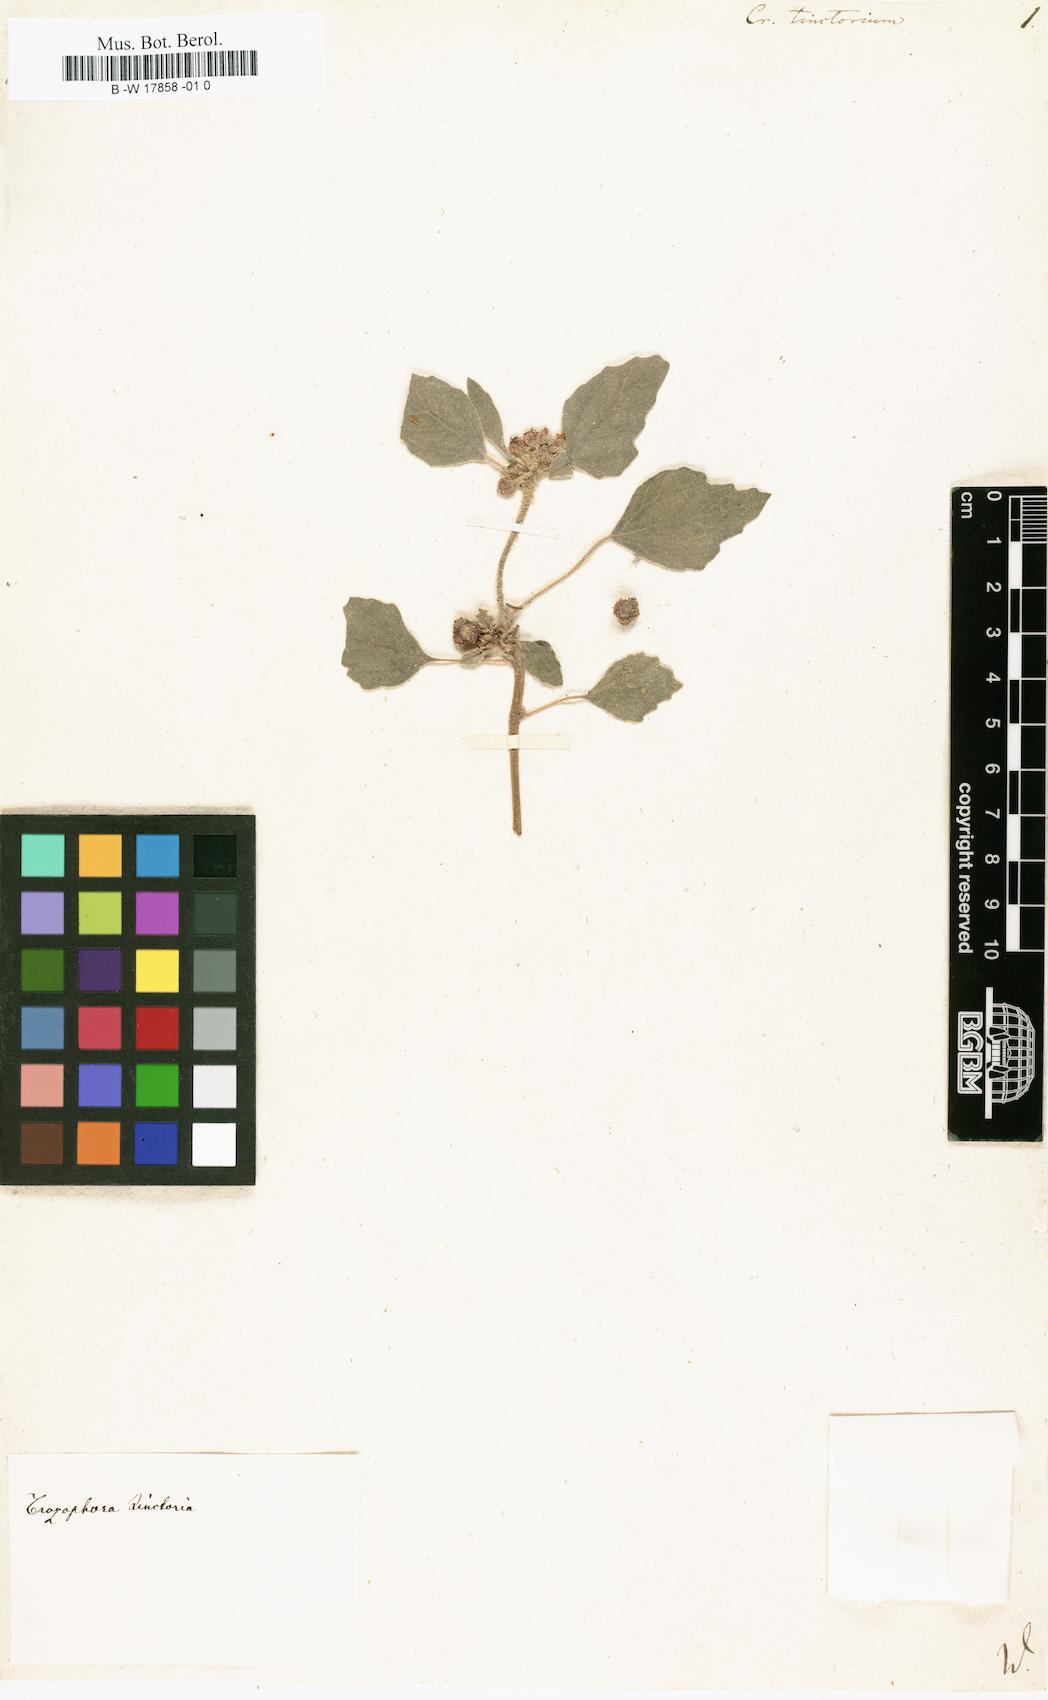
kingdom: Plantae
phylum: Tracheophyta
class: Magnoliopsida
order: Malpighiales
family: Euphorbiaceae
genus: Chrozophora
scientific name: Chrozophora
